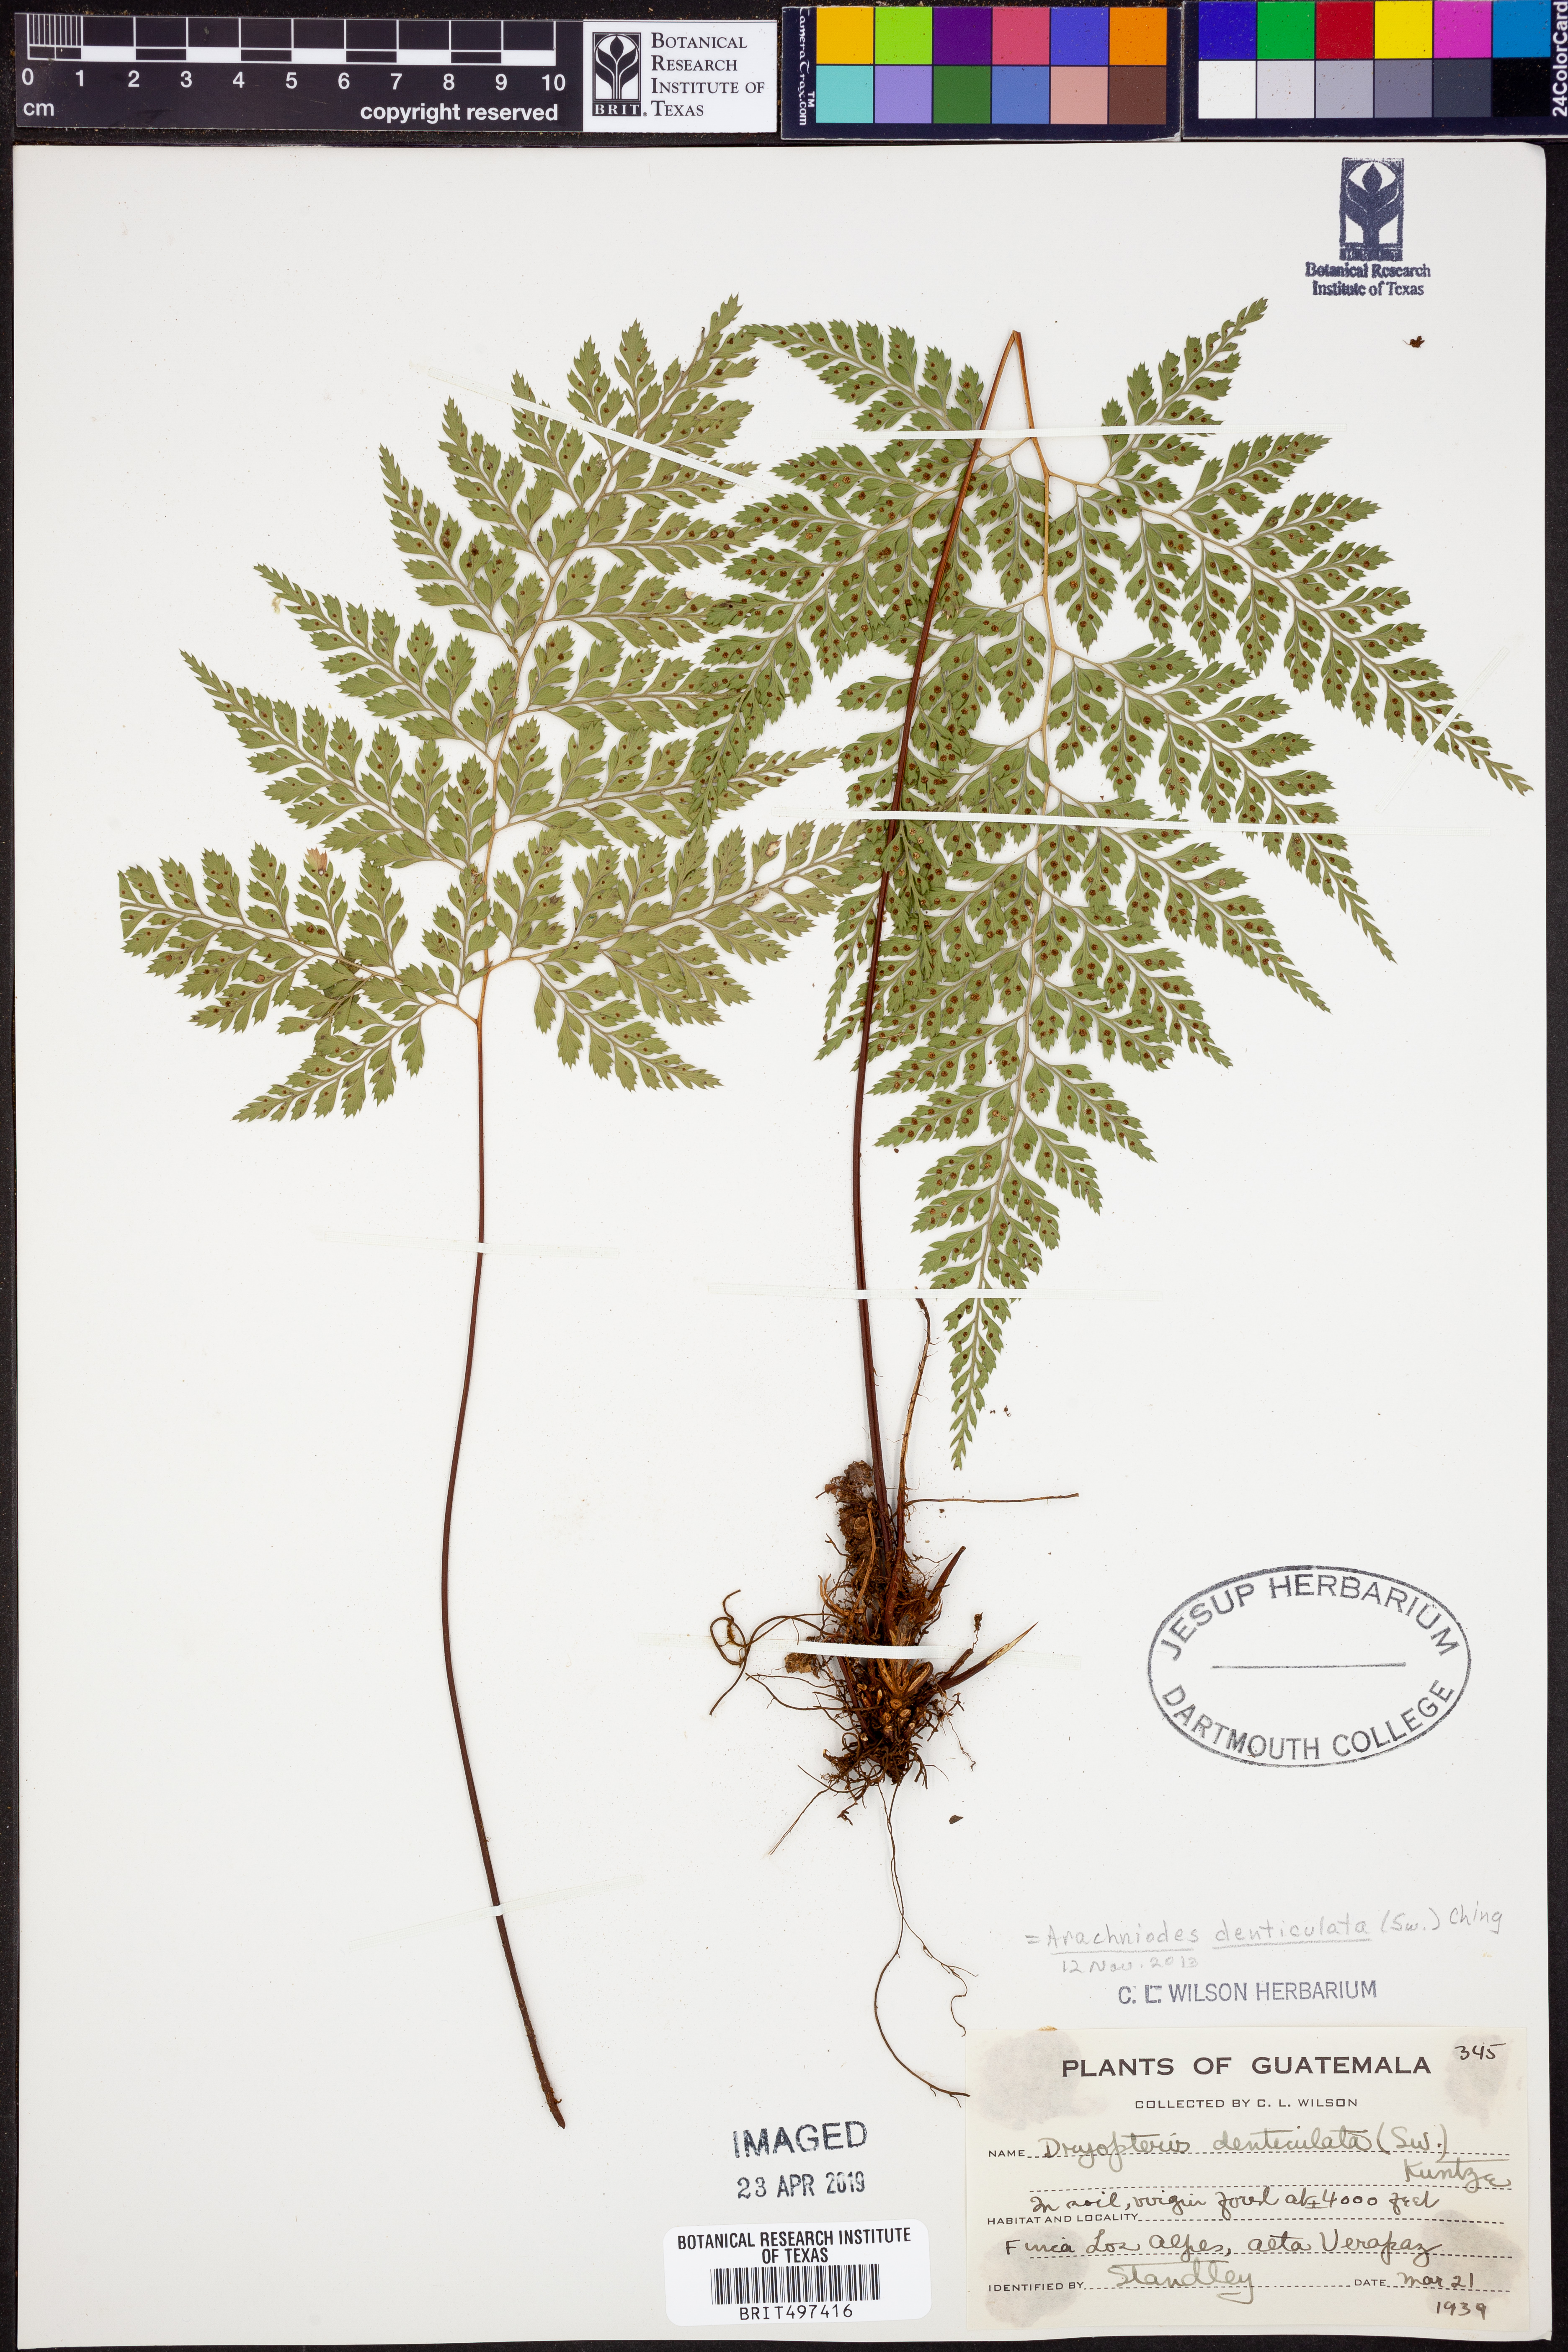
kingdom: Plantae
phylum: Tracheophyta
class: Polypodiopsida
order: Polypodiales
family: Dryopteridaceae
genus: Arachniodes
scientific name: Arachniodes denticulata
